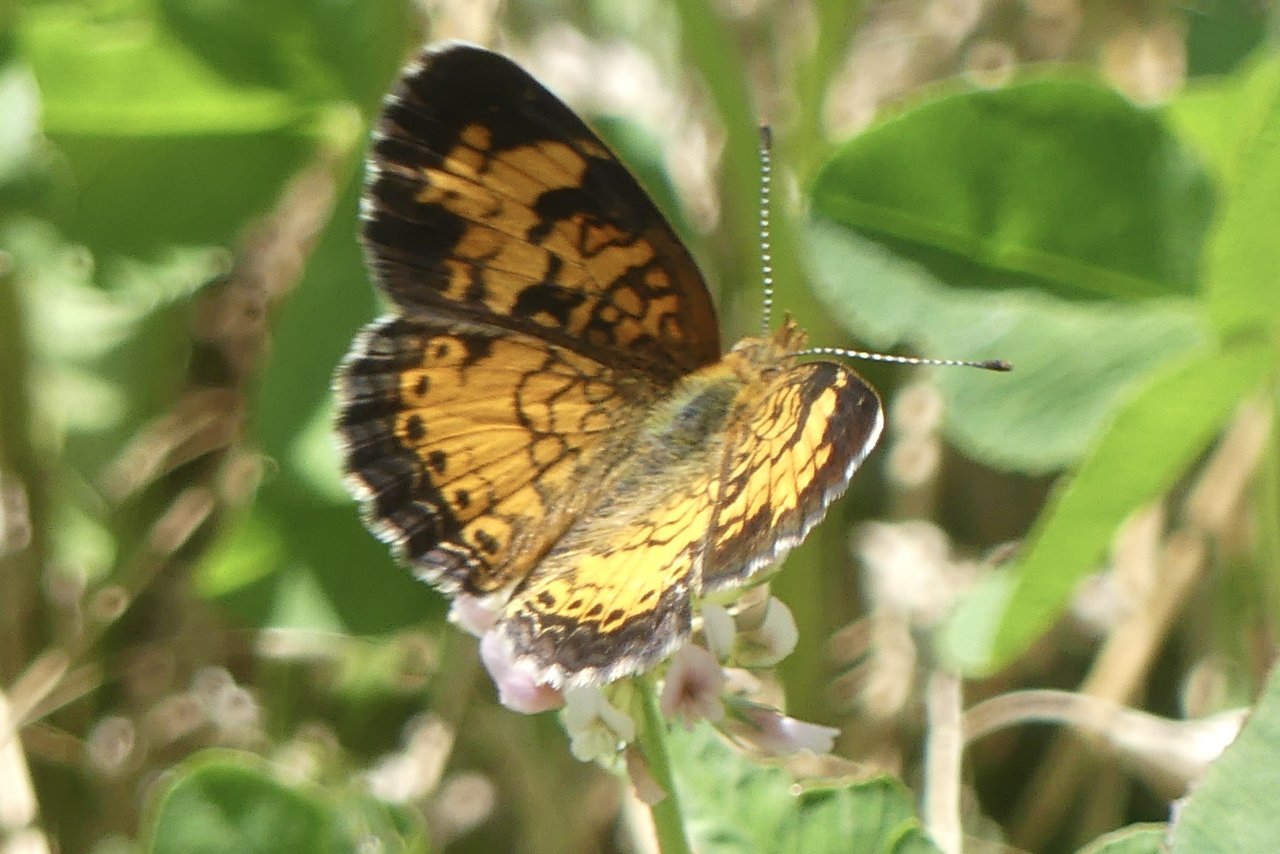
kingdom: Animalia
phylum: Arthropoda
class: Insecta
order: Lepidoptera
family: Nymphalidae
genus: Phyciodes
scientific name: Phyciodes tharos
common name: Pearl Crescent
